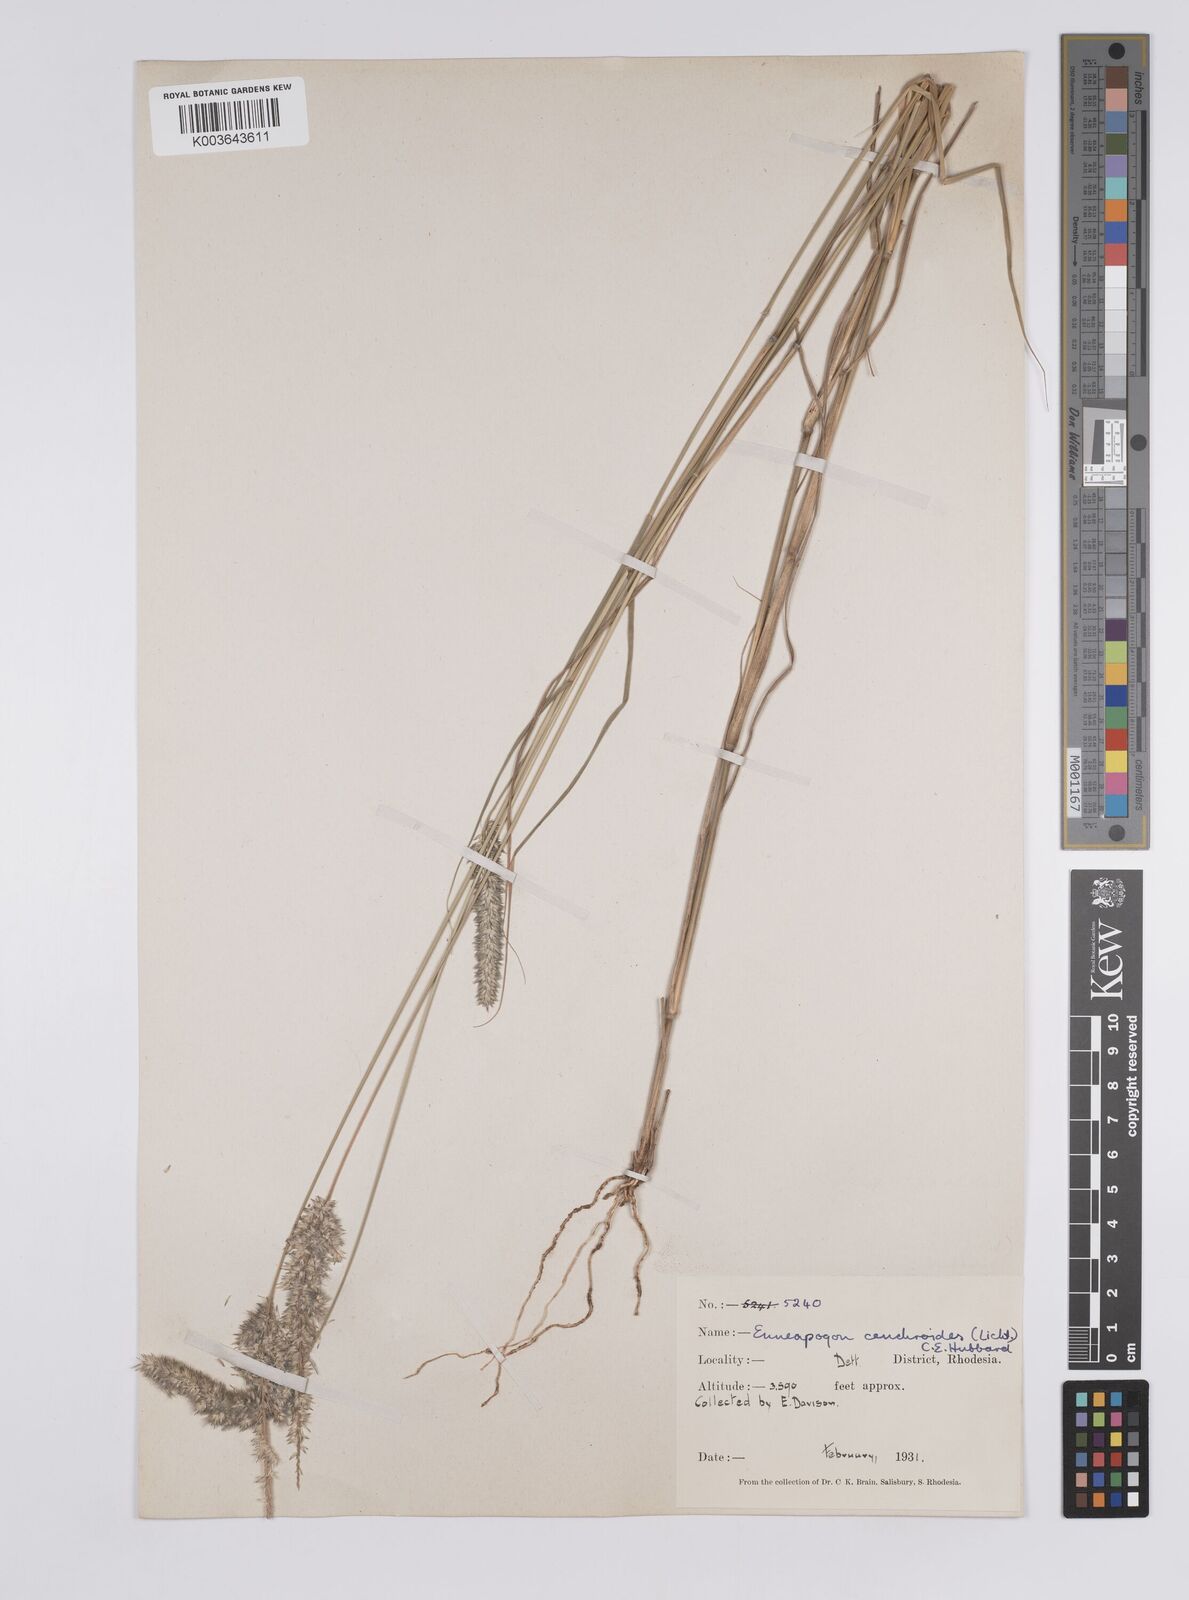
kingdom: Plantae
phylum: Tracheophyta
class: Liliopsida
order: Poales
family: Poaceae
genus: Enneapogon
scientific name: Enneapogon cenchroides
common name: Soft feather pappusgrass
